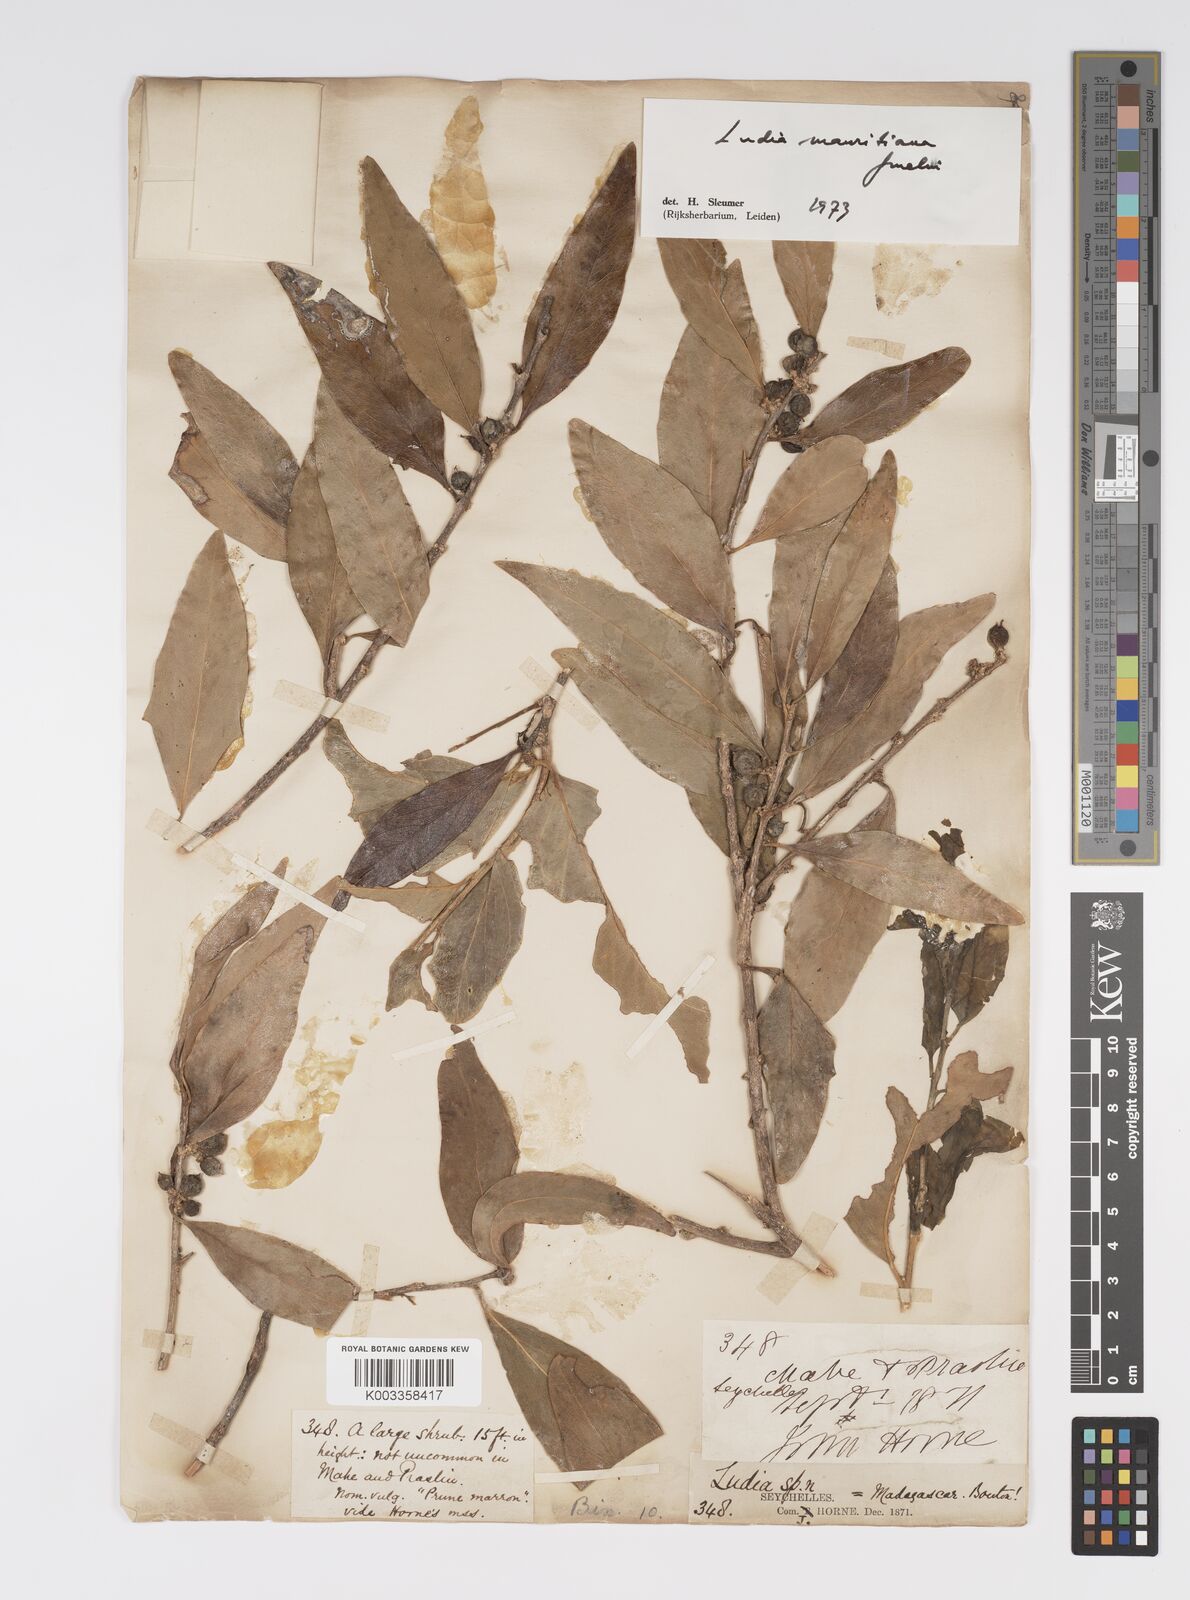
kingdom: Plantae
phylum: Tracheophyta
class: Magnoliopsida
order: Malpighiales
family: Salicaceae
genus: Ludia
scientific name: Ludia mauritiana
